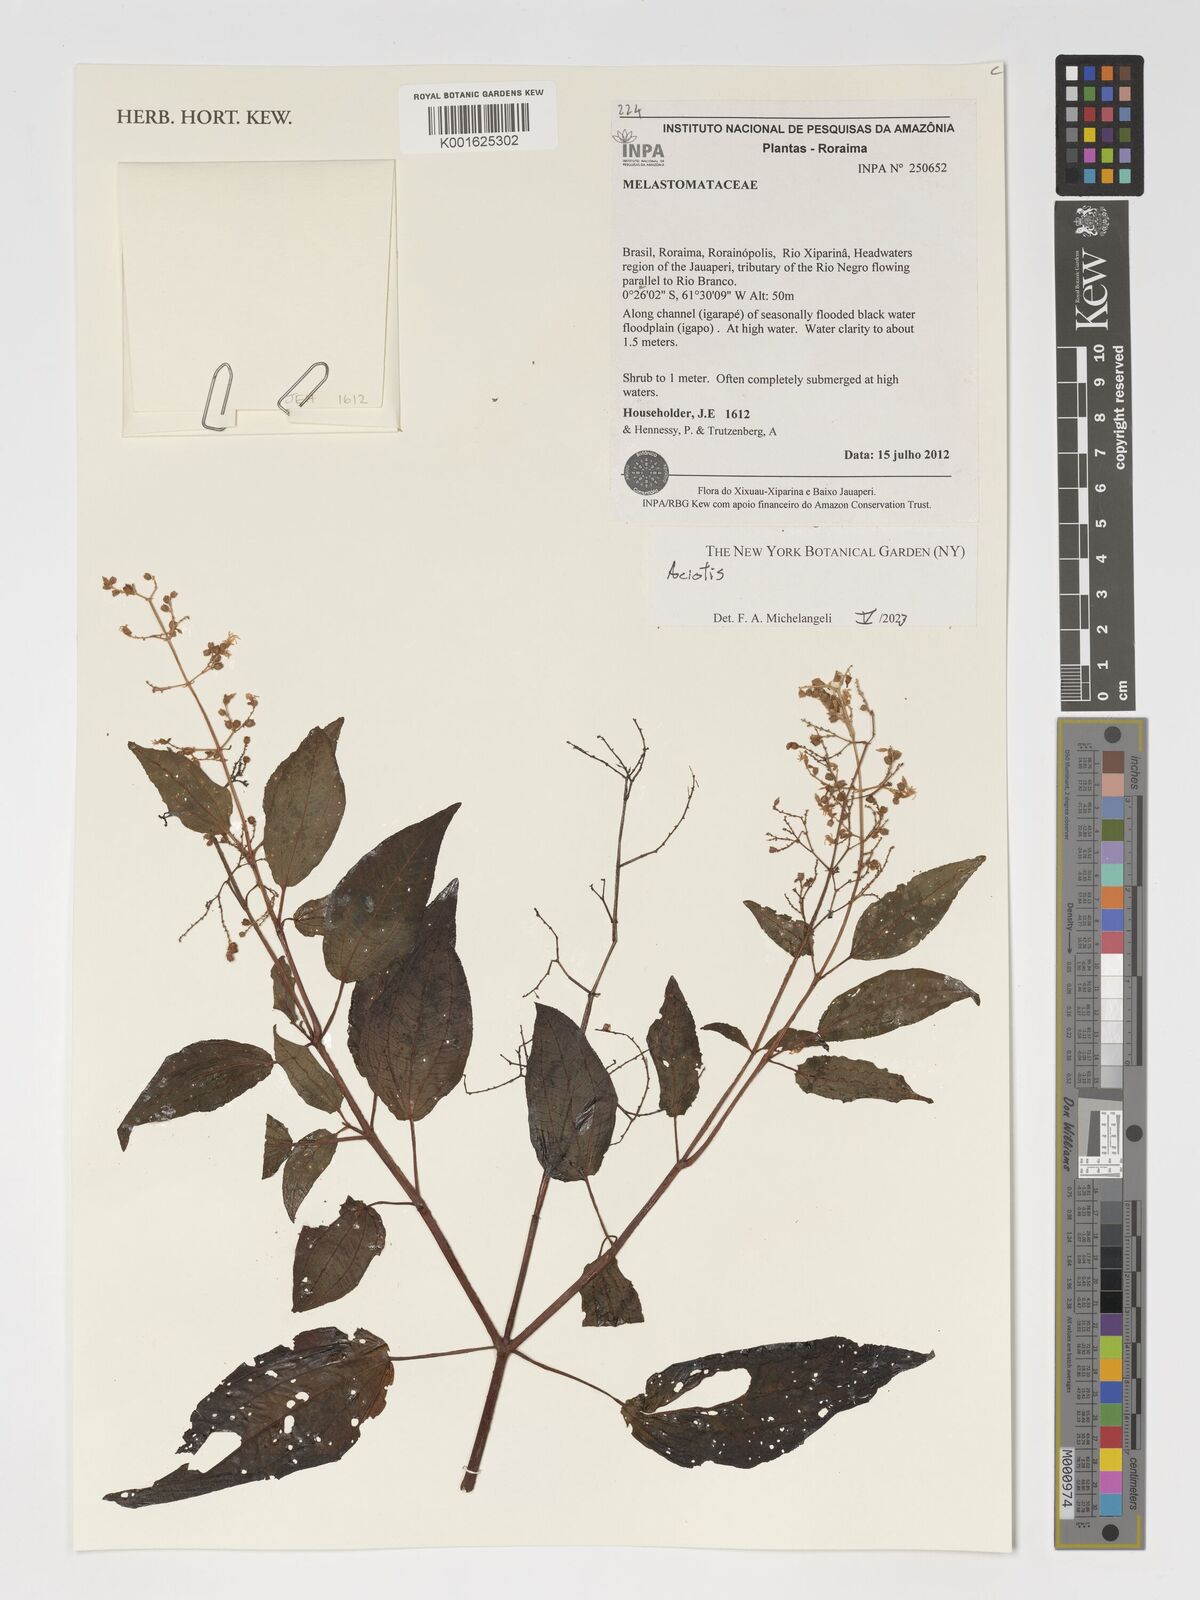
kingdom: Plantae
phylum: Tracheophyta
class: Magnoliopsida
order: Myrtales
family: Melastomataceae
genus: Aciotis
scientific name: Aciotis
